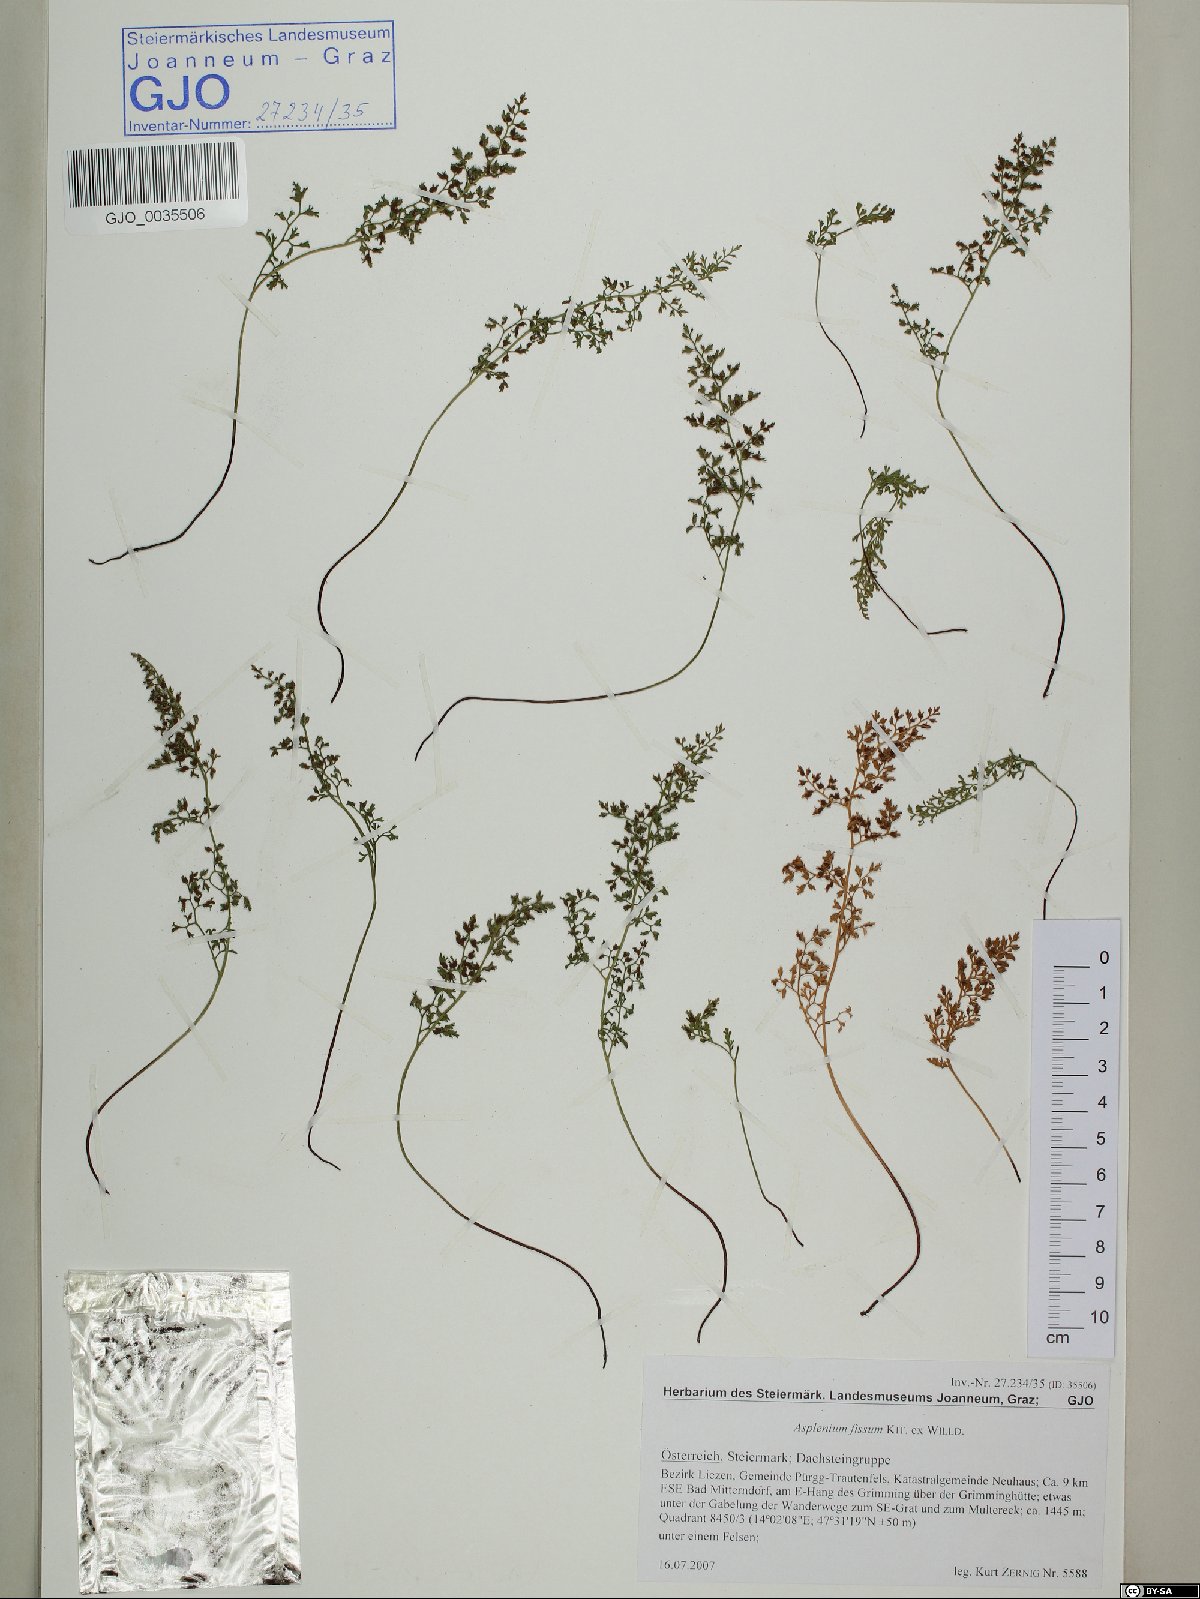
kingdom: Plantae
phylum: Tracheophyta
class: Polypodiopsida
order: Polypodiales
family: Aspleniaceae
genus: Asplenium
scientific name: Asplenium fissum
